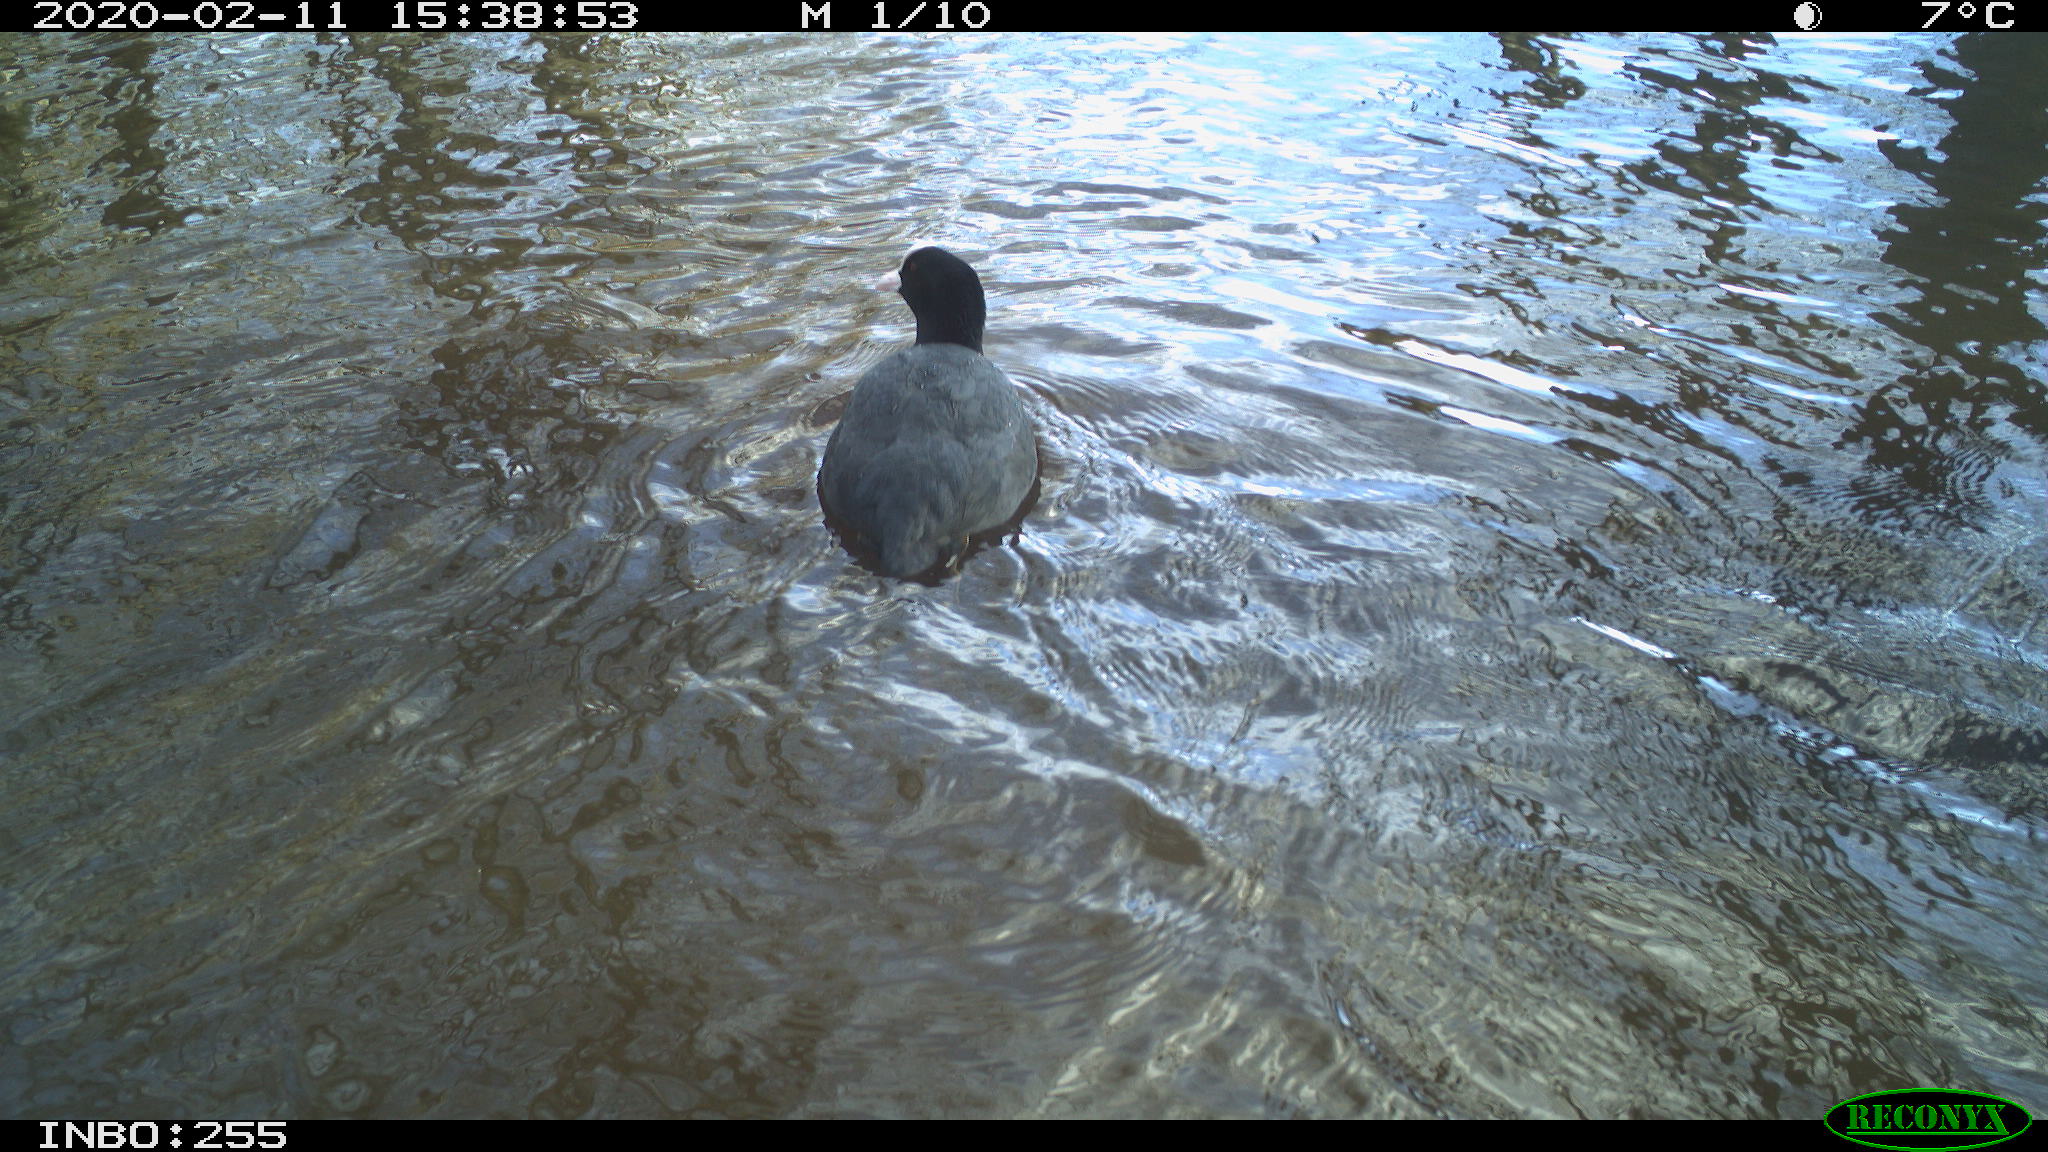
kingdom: Animalia
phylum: Chordata
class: Aves
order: Gruiformes
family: Rallidae
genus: Fulica
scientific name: Fulica atra
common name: Eurasian coot
